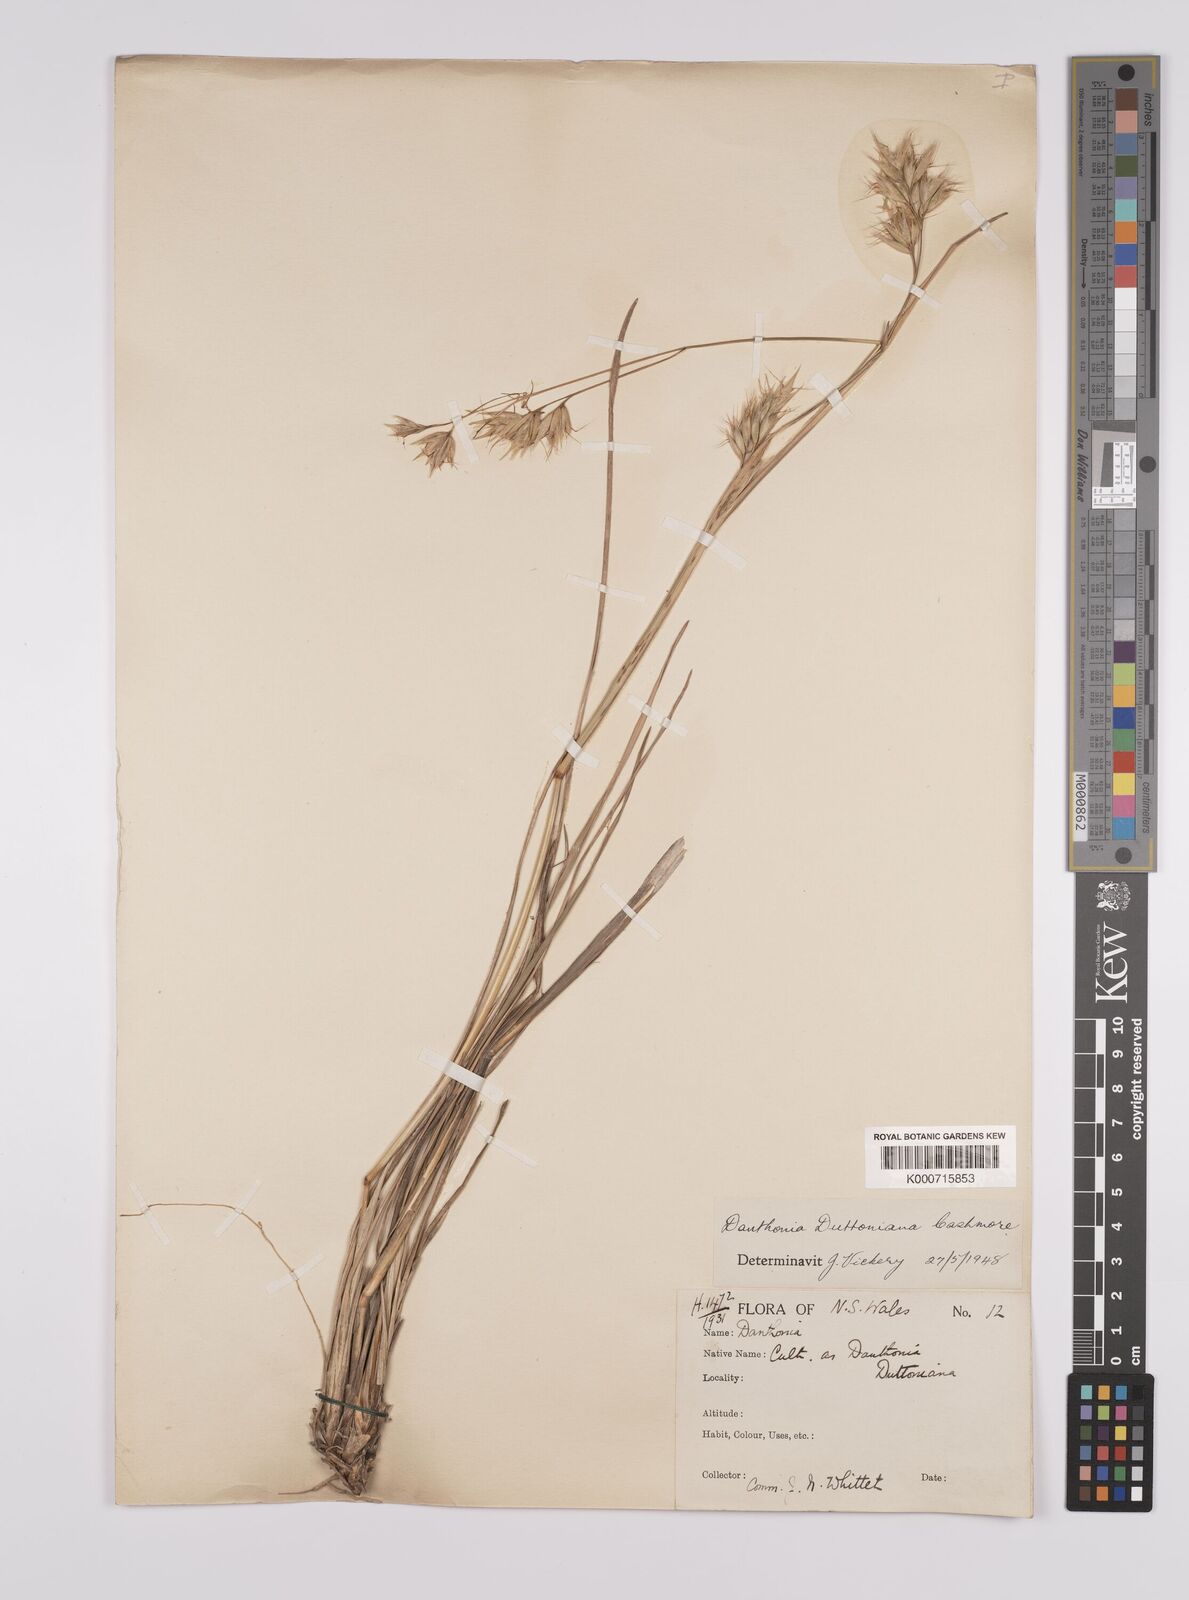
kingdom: Plantae
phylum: Tracheophyta
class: Liliopsida
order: Poales
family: Poaceae
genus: Rytidosperma
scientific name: Rytidosperma duttonianum
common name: Brown-black wallaby grass
